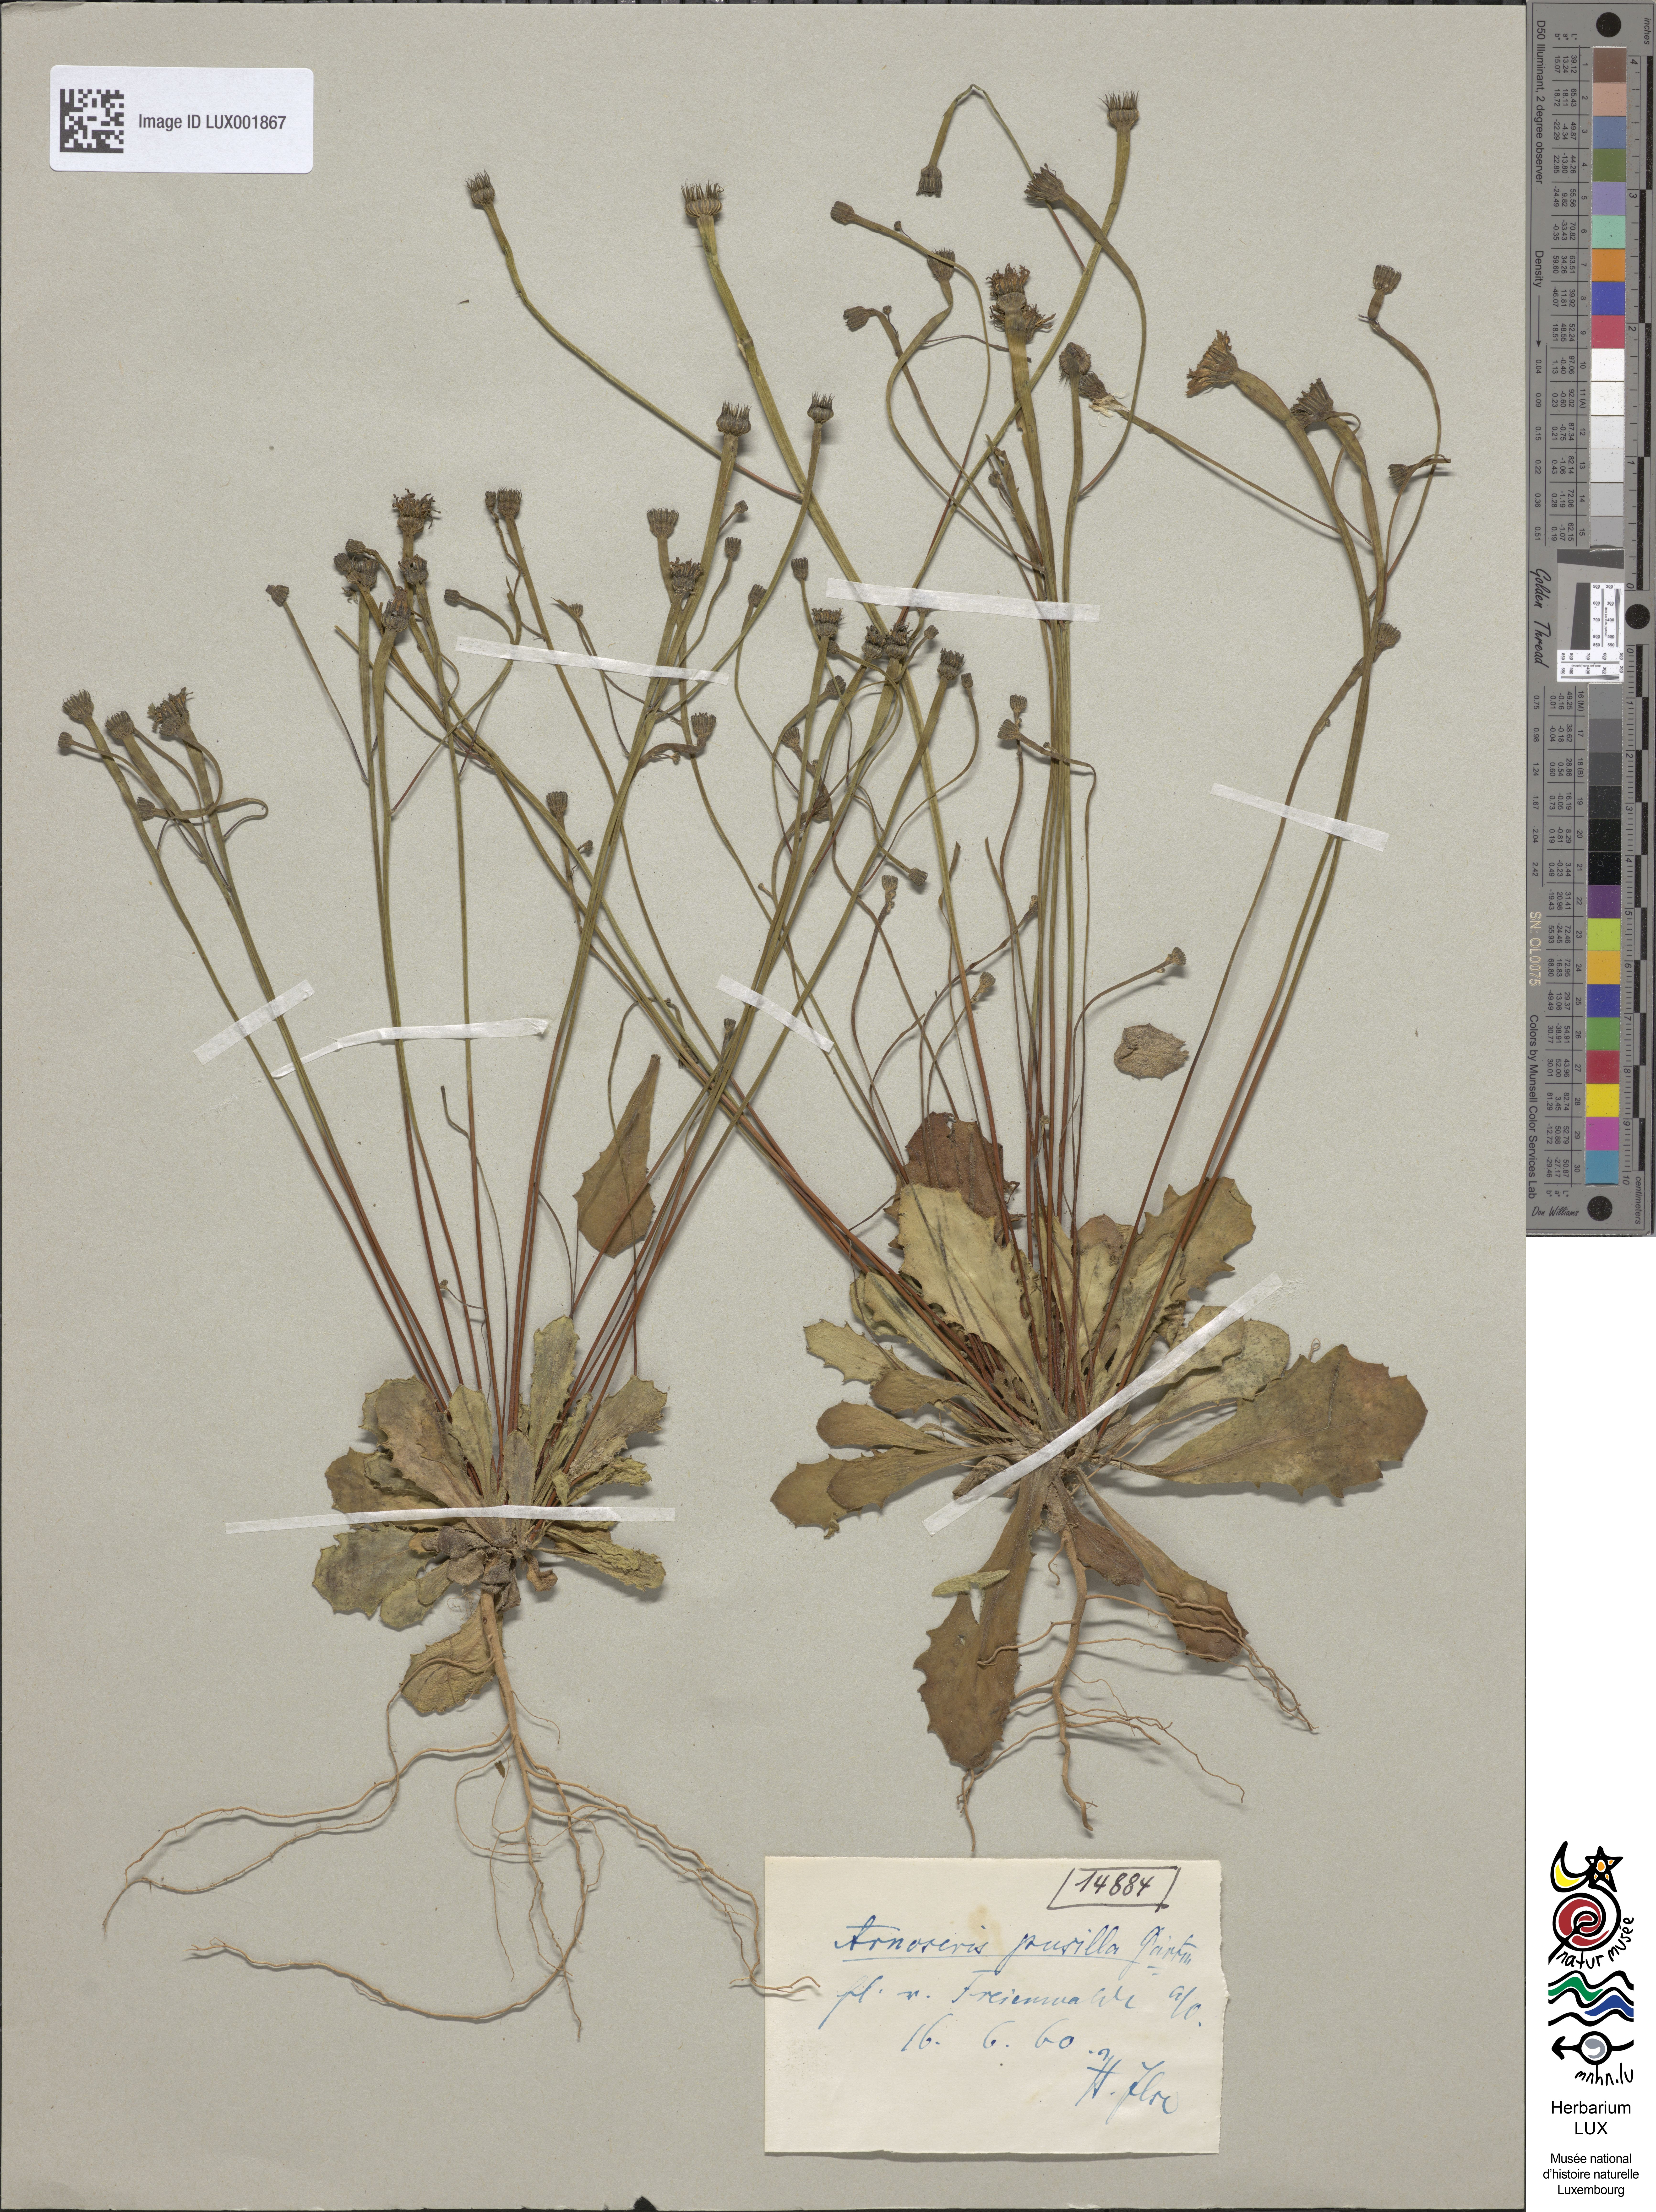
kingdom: Plantae
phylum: Tracheophyta
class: Magnoliopsida
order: Asterales
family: Asteraceae
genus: Arnoseris
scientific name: Arnoseris minima
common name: Lamb's succory
